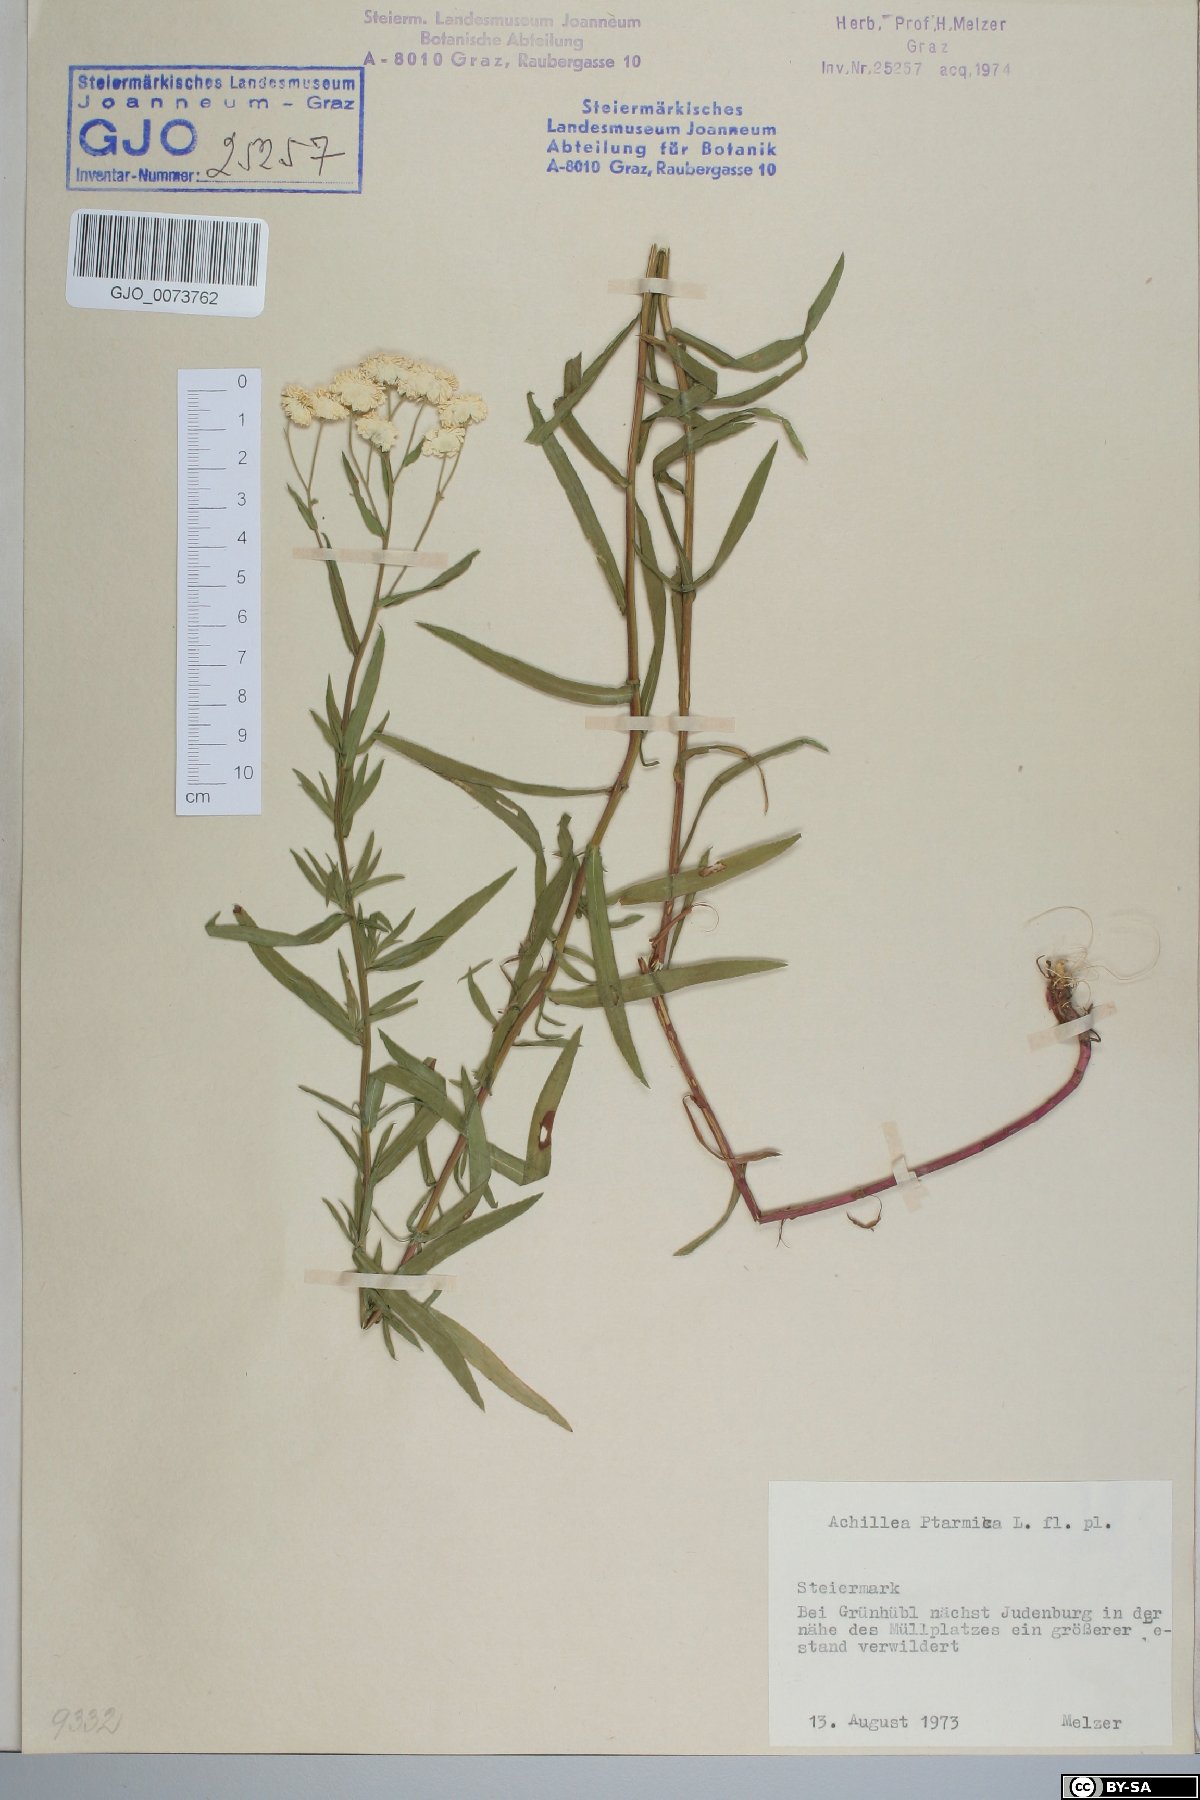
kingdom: Plantae
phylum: Tracheophyta
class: Magnoliopsida
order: Asterales
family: Asteraceae
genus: Achillea
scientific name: Achillea ptarmica
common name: Sneezeweed
